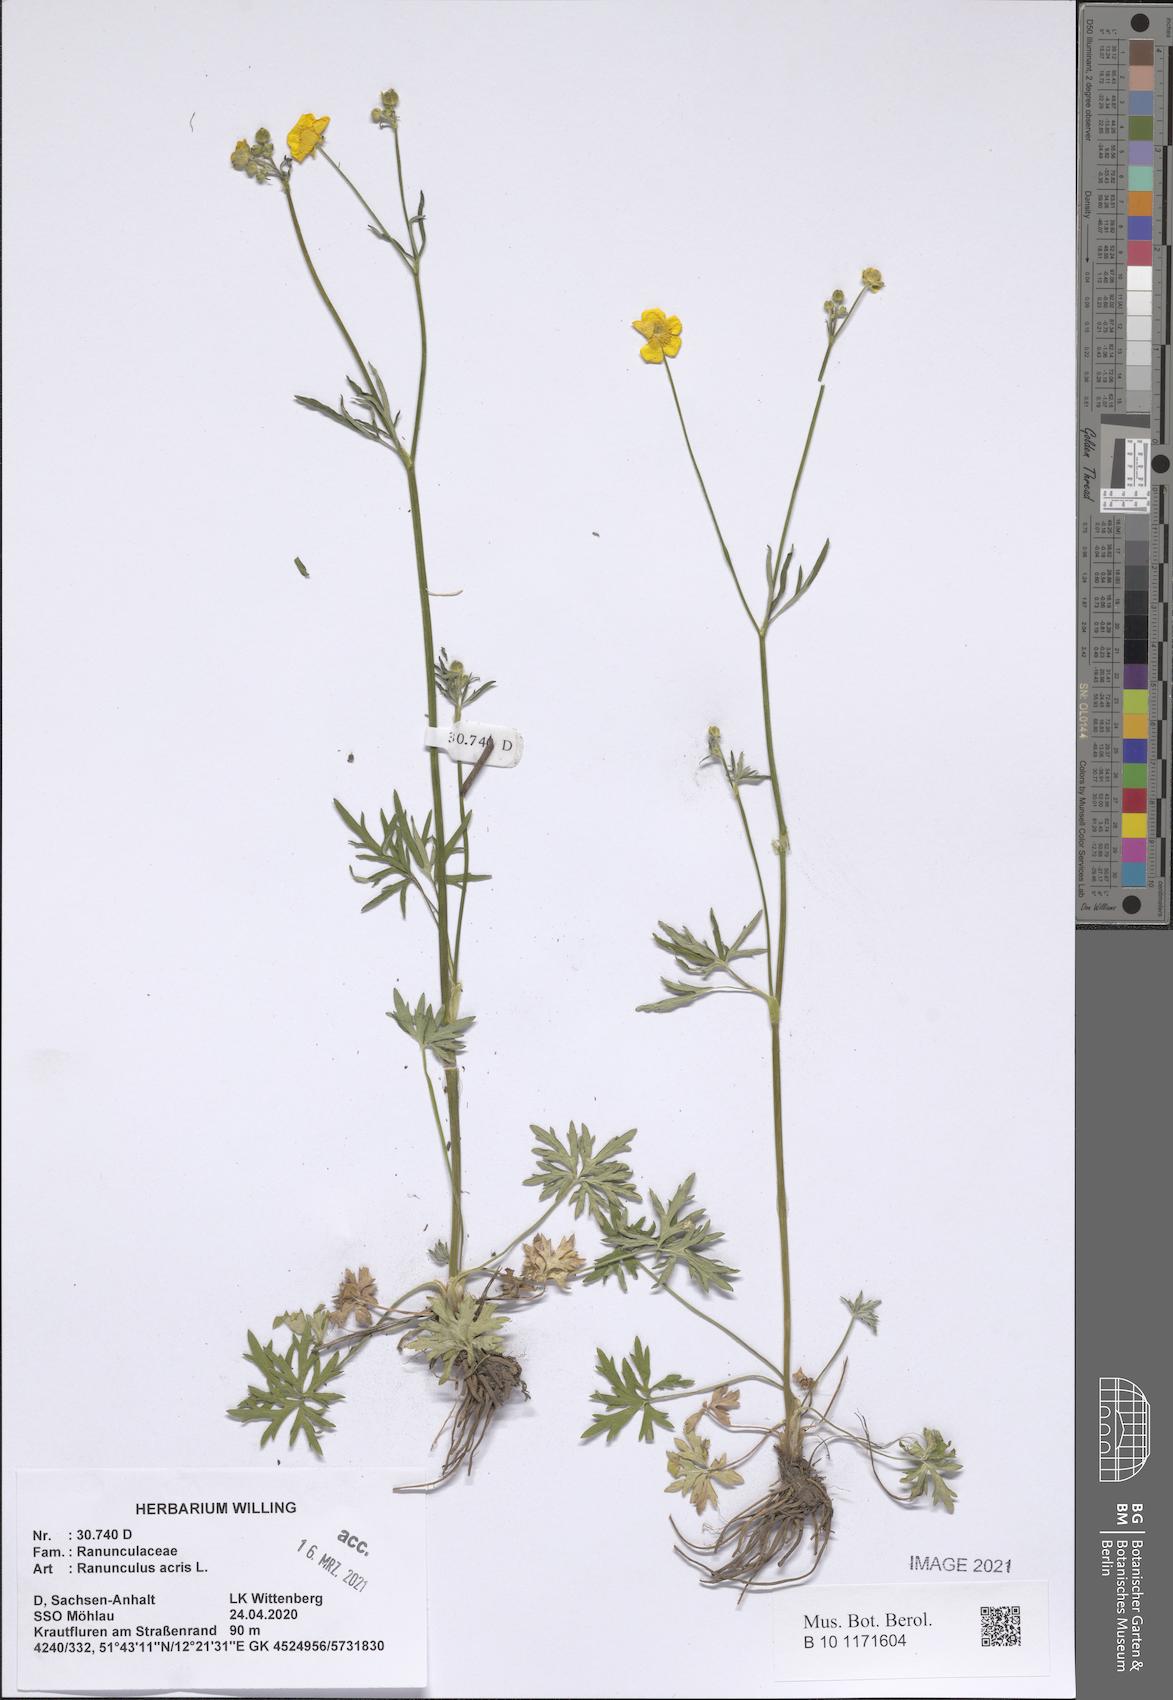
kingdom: Plantae
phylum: Tracheophyta
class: Magnoliopsida
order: Ranunculales
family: Ranunculaceae
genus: Ranunculus
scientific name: Ranunculus acris
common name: Meadow buttercup
